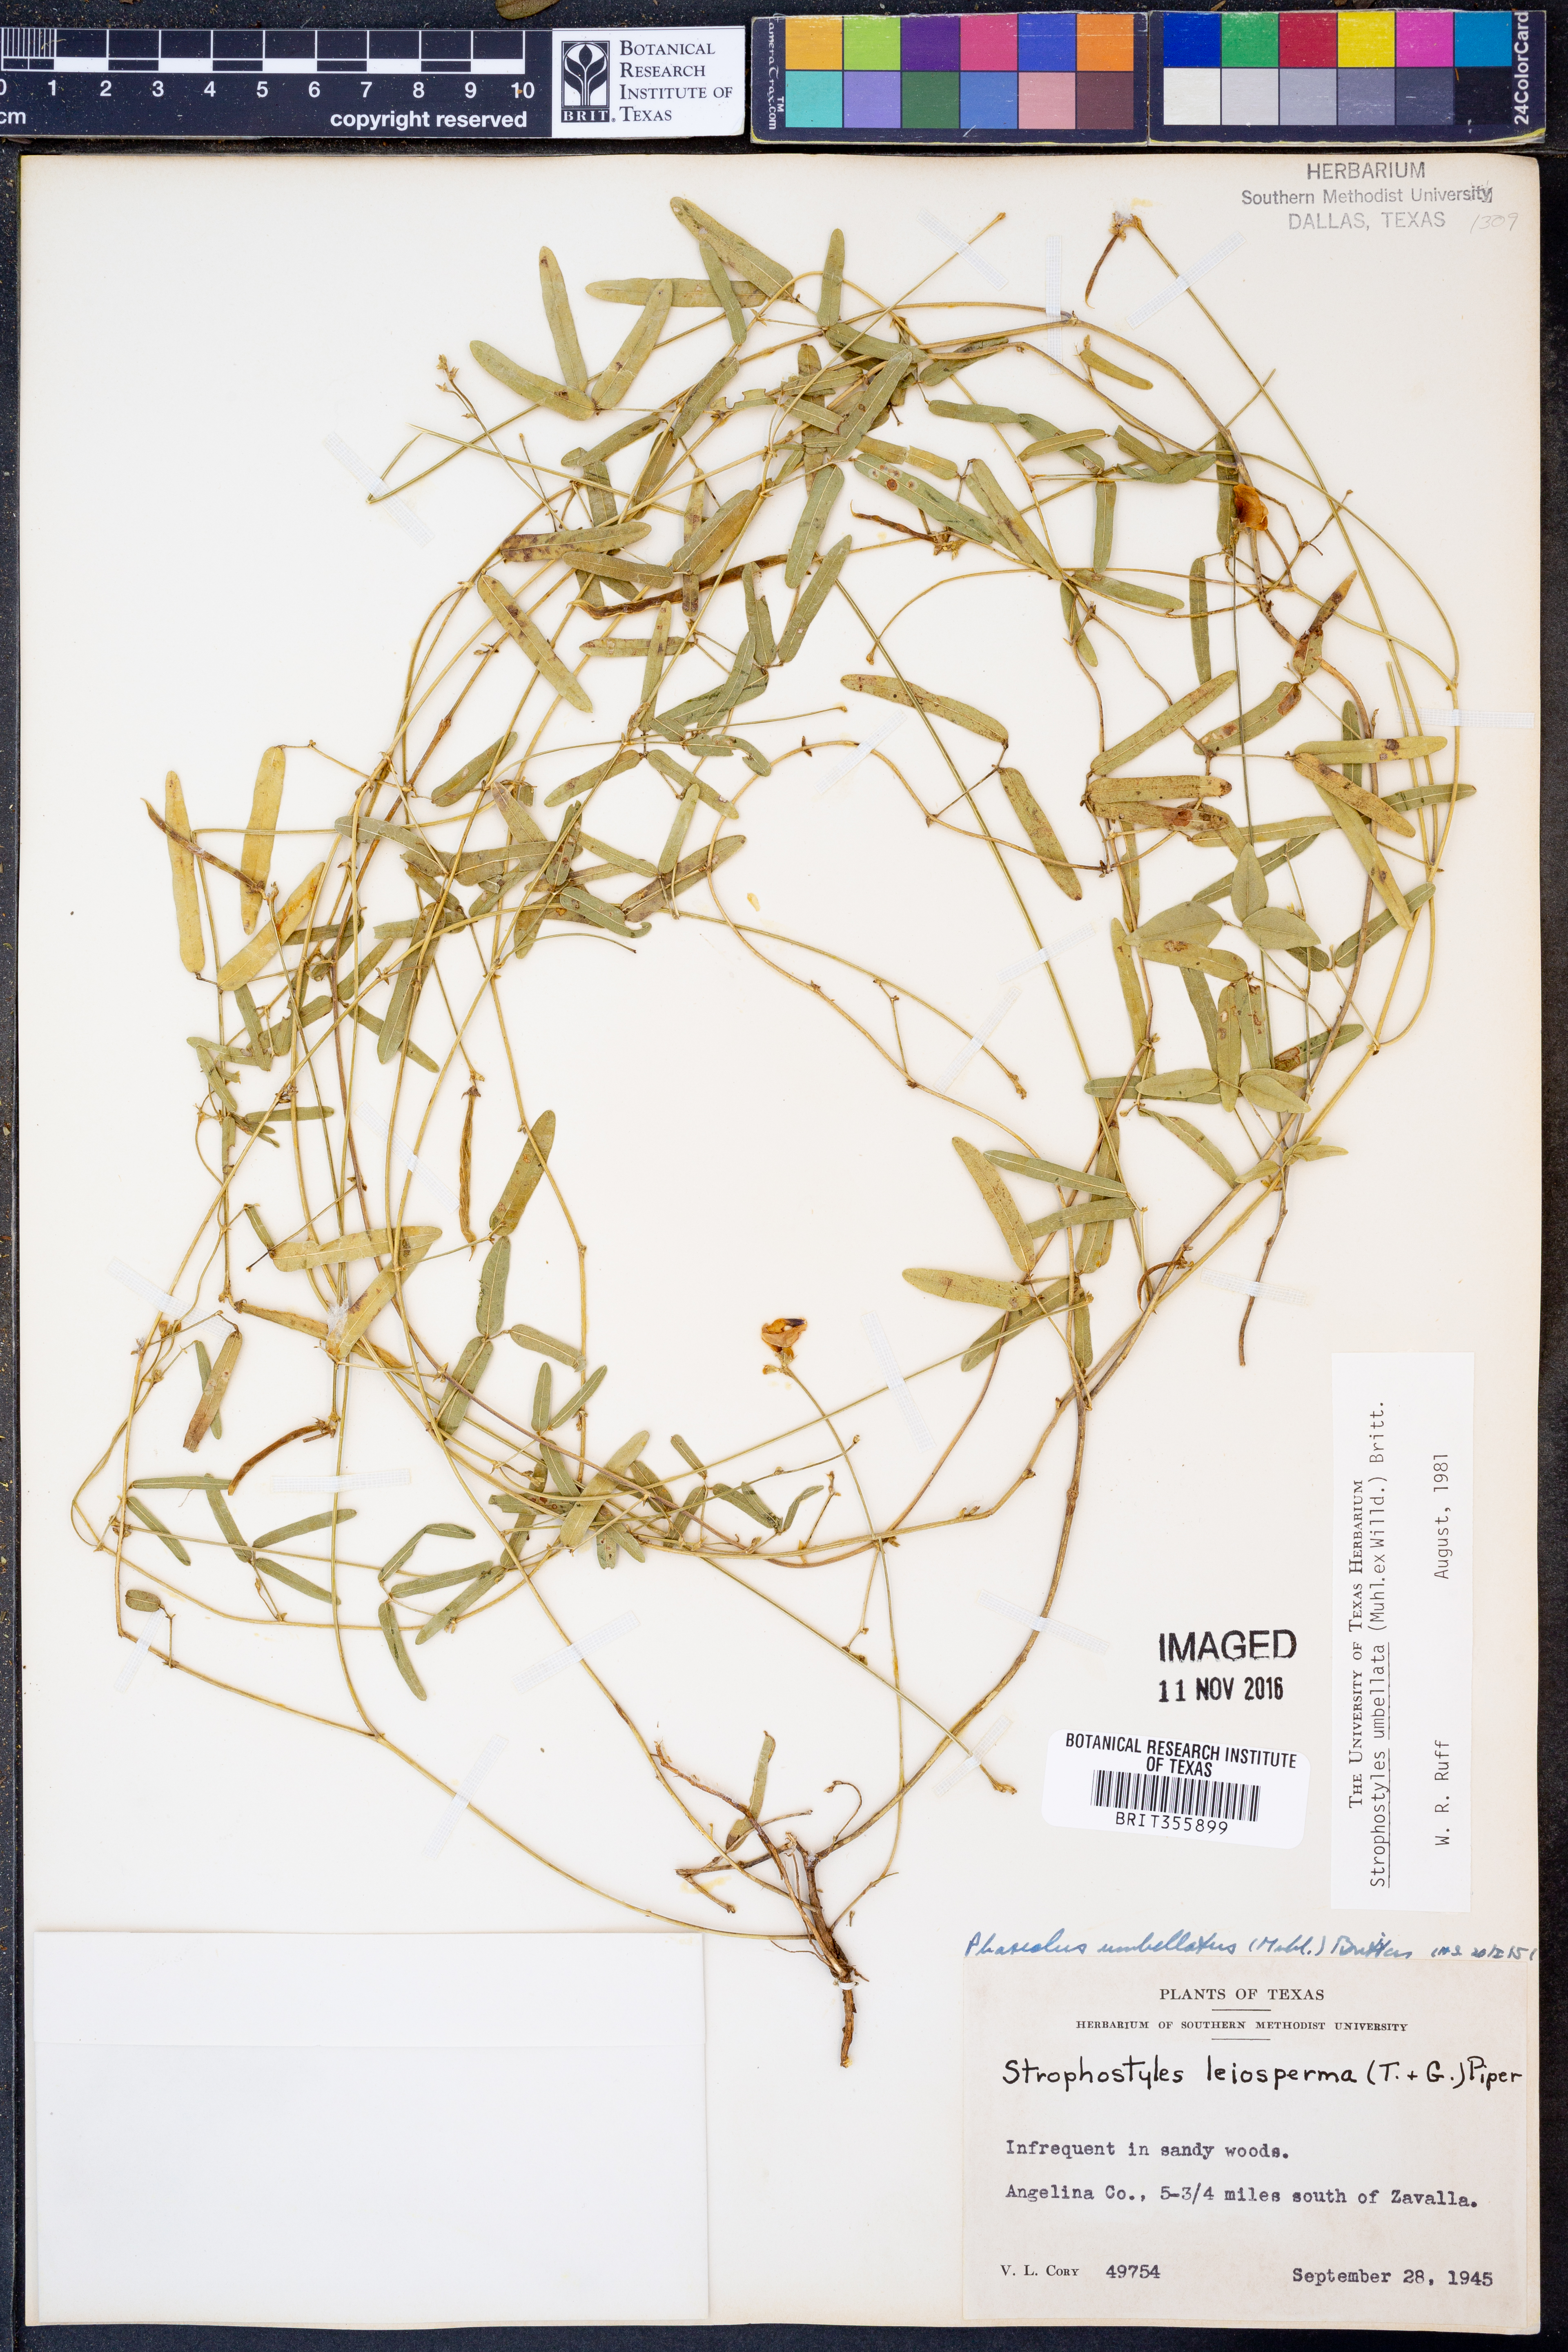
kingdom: Plantae
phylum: Tracheophyta
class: Magnoliopsida
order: Fabales
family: Fabaceae
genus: Strophostyles
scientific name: Strophostyles umbellata
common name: Perennial wild bean
